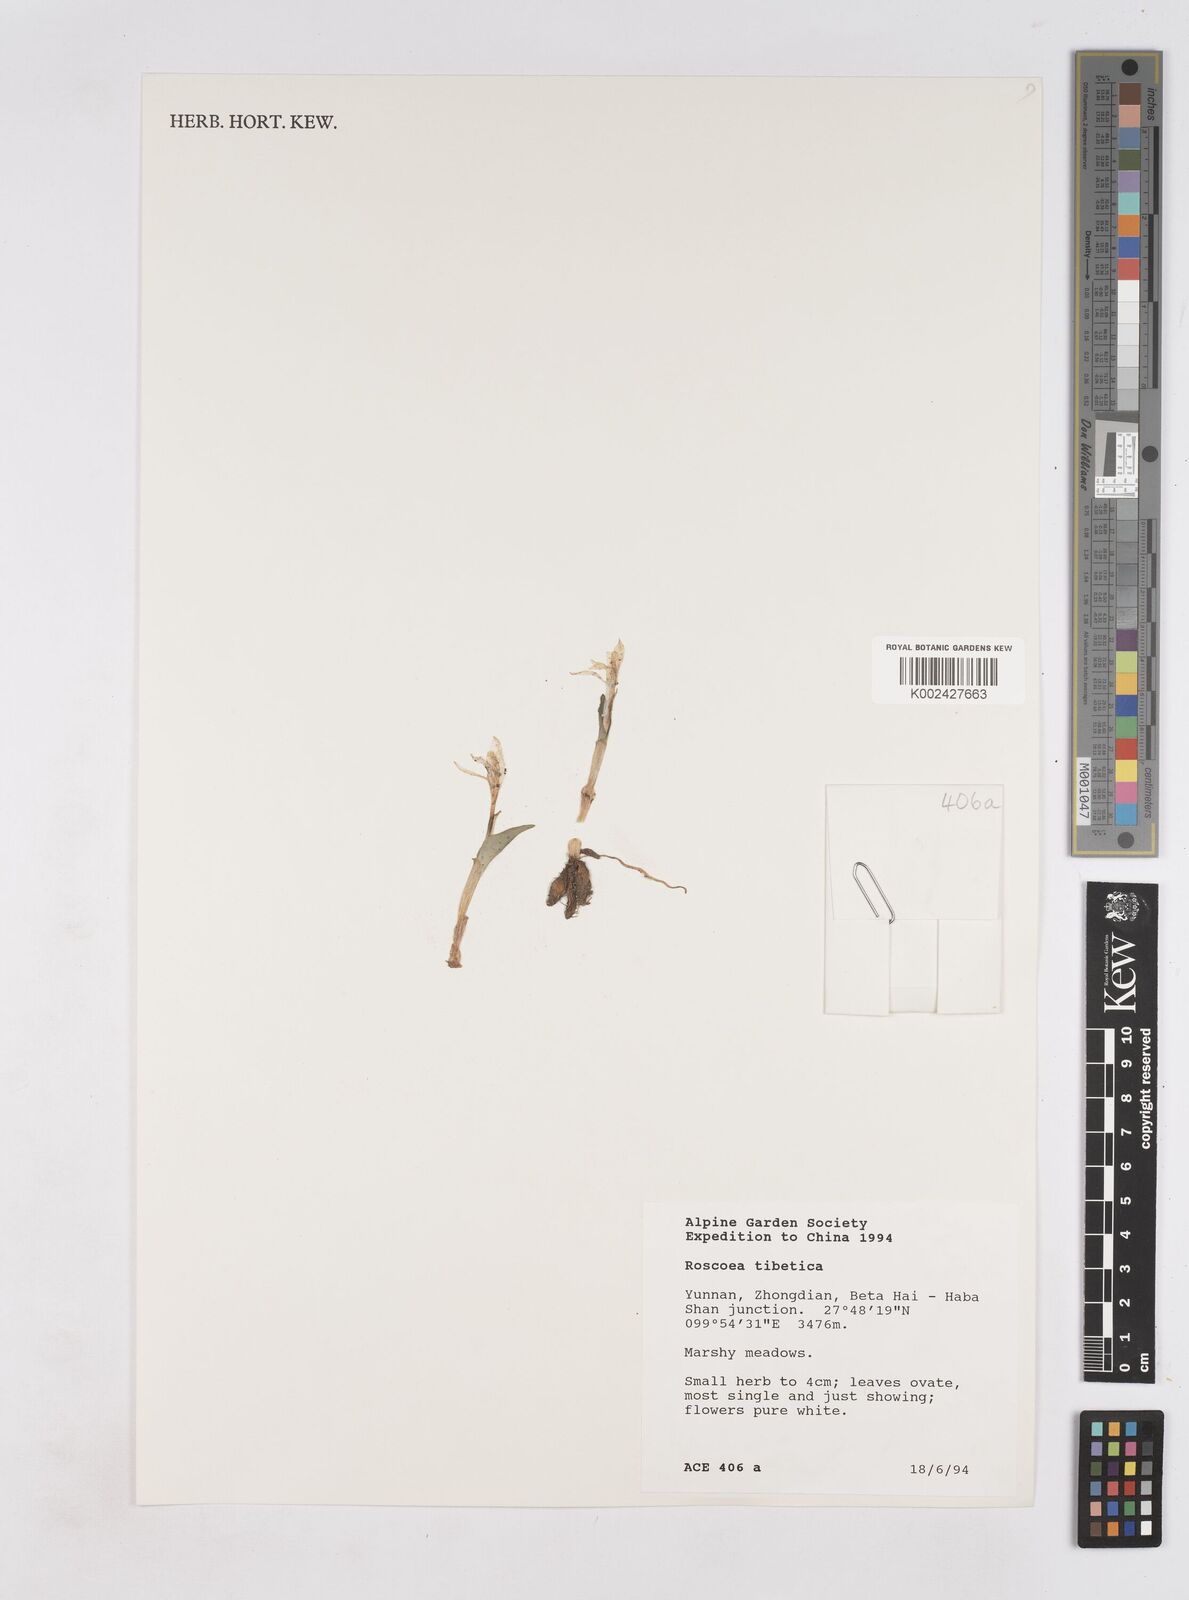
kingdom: Plantae
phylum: Tracheophyta
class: Liliopsida
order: Zingiberales
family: Zingiberaceae
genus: Roscoea
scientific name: Roscoea tibetica
